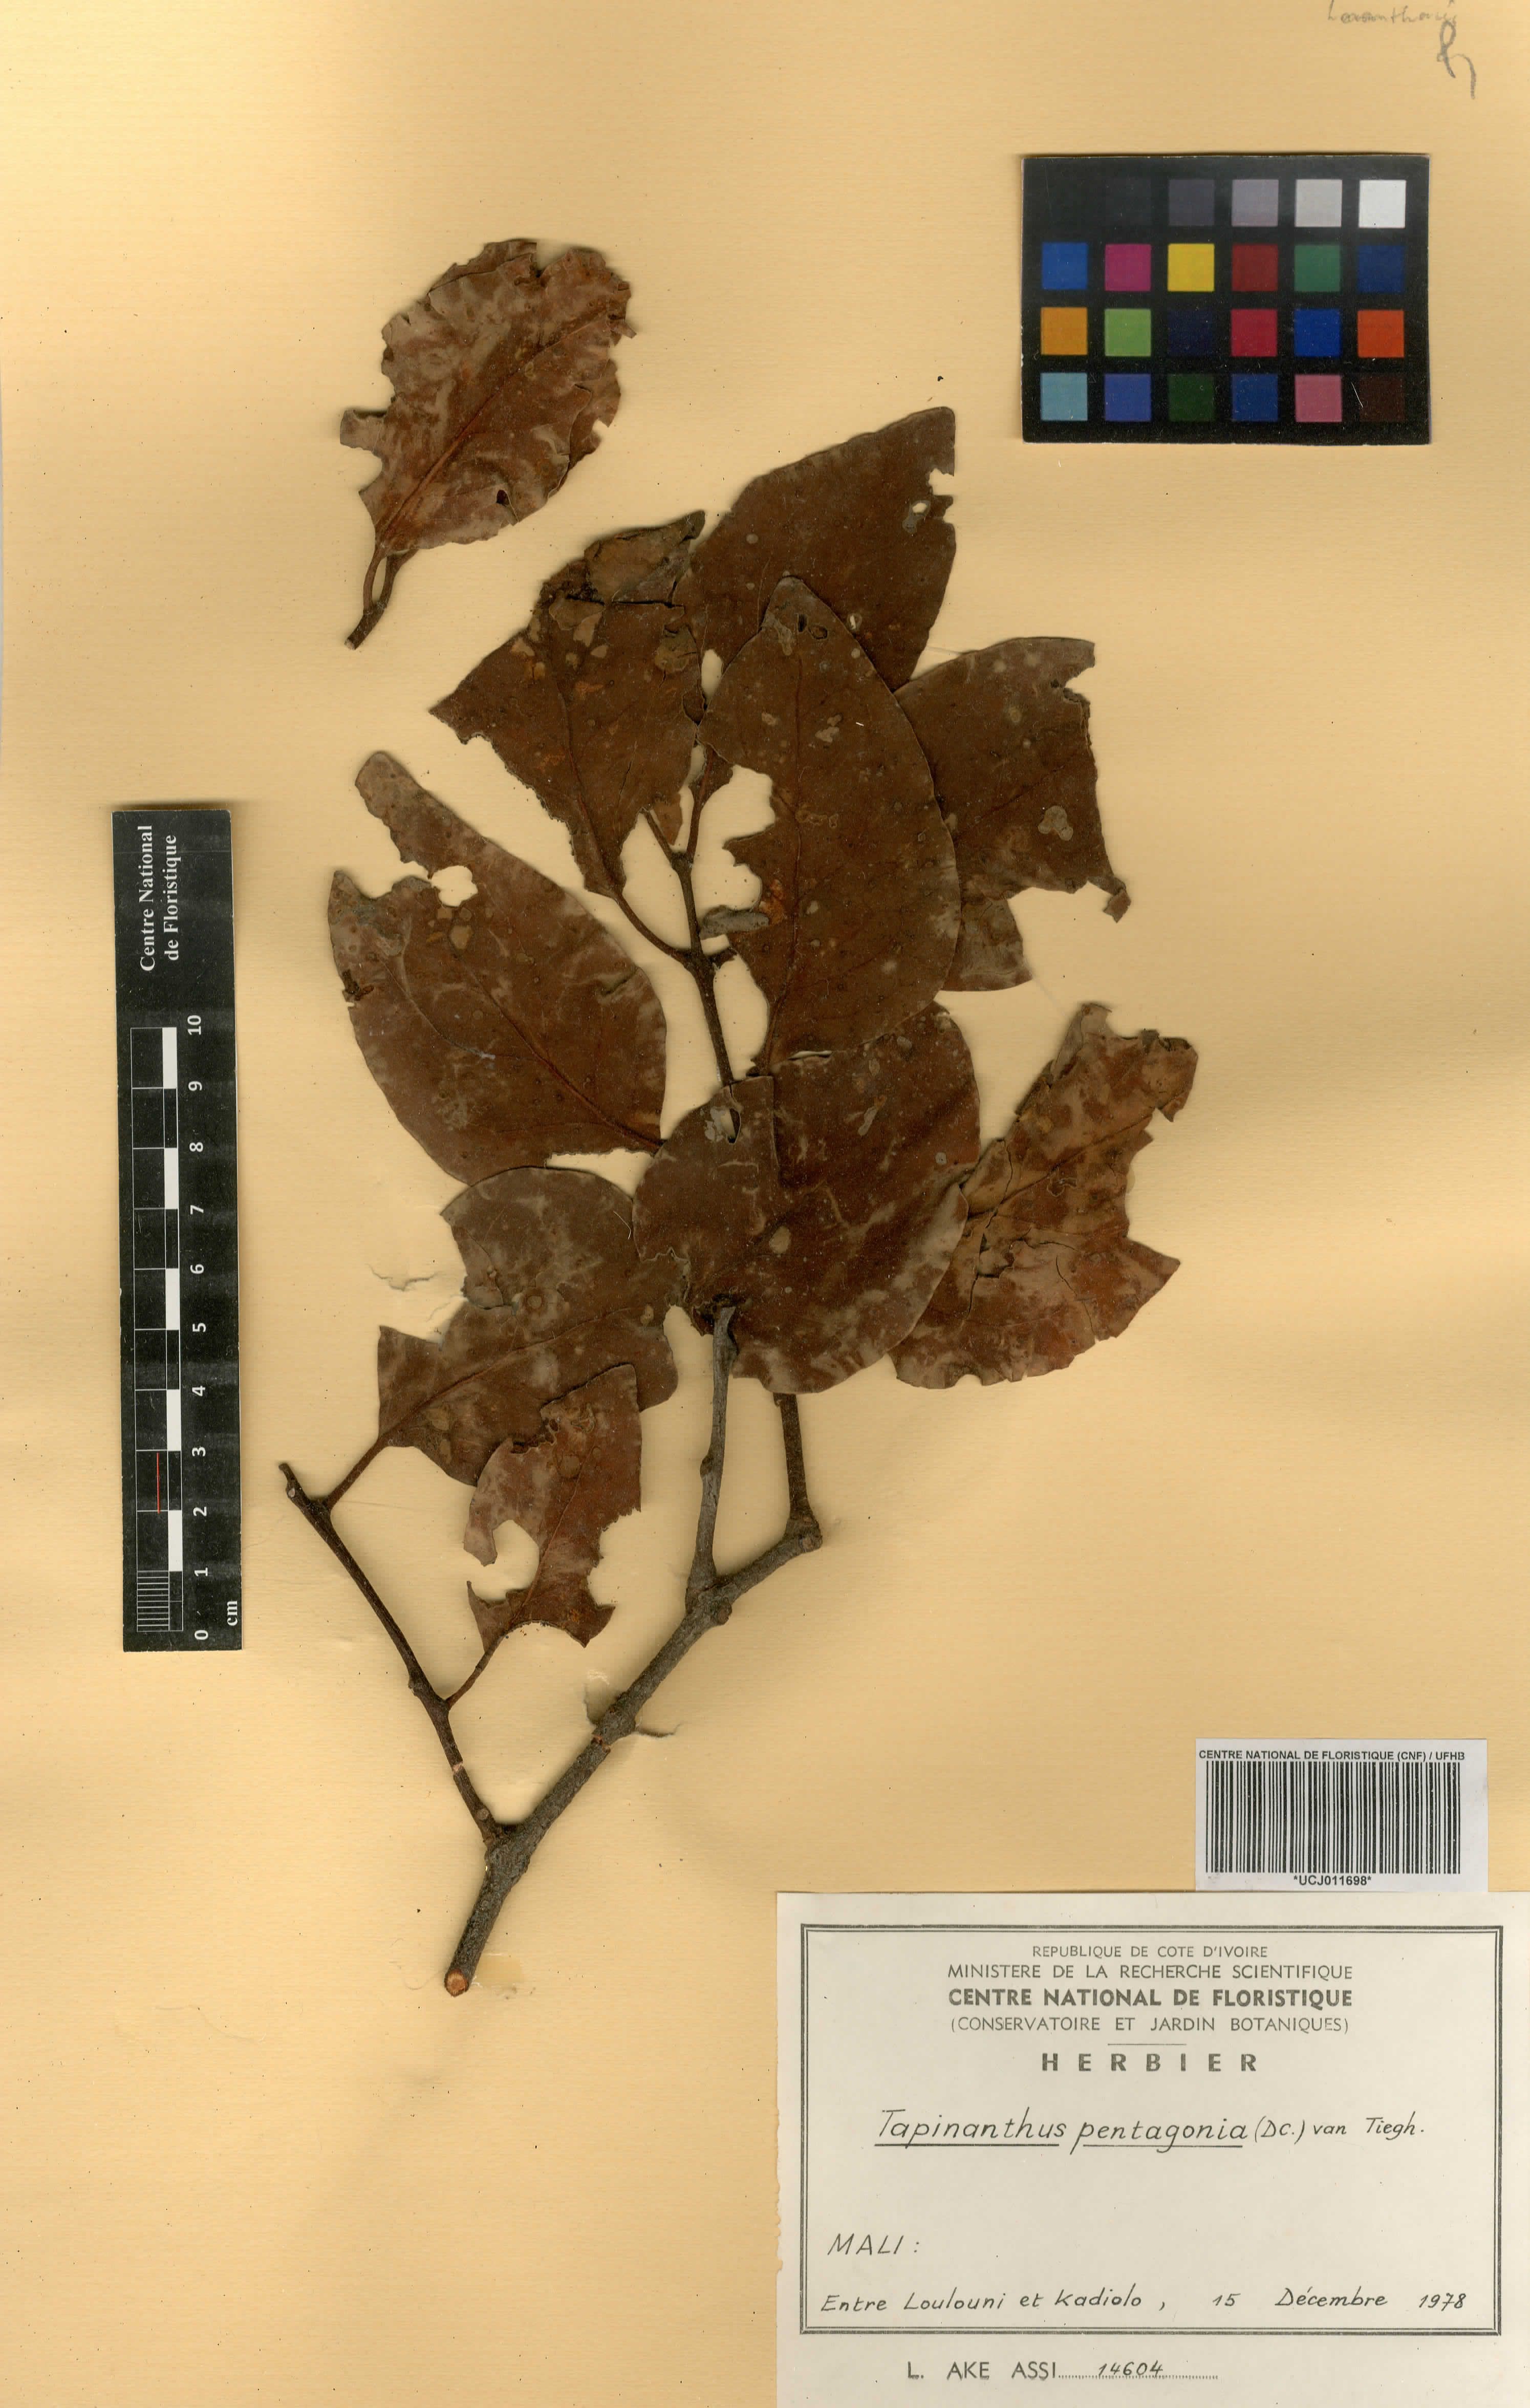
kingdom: Plantae
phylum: Tracheophyta
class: Magnoliopsida
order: Santalales
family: Loranthaceae
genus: Tapinanthus
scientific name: Tapinanthus pentagonia
